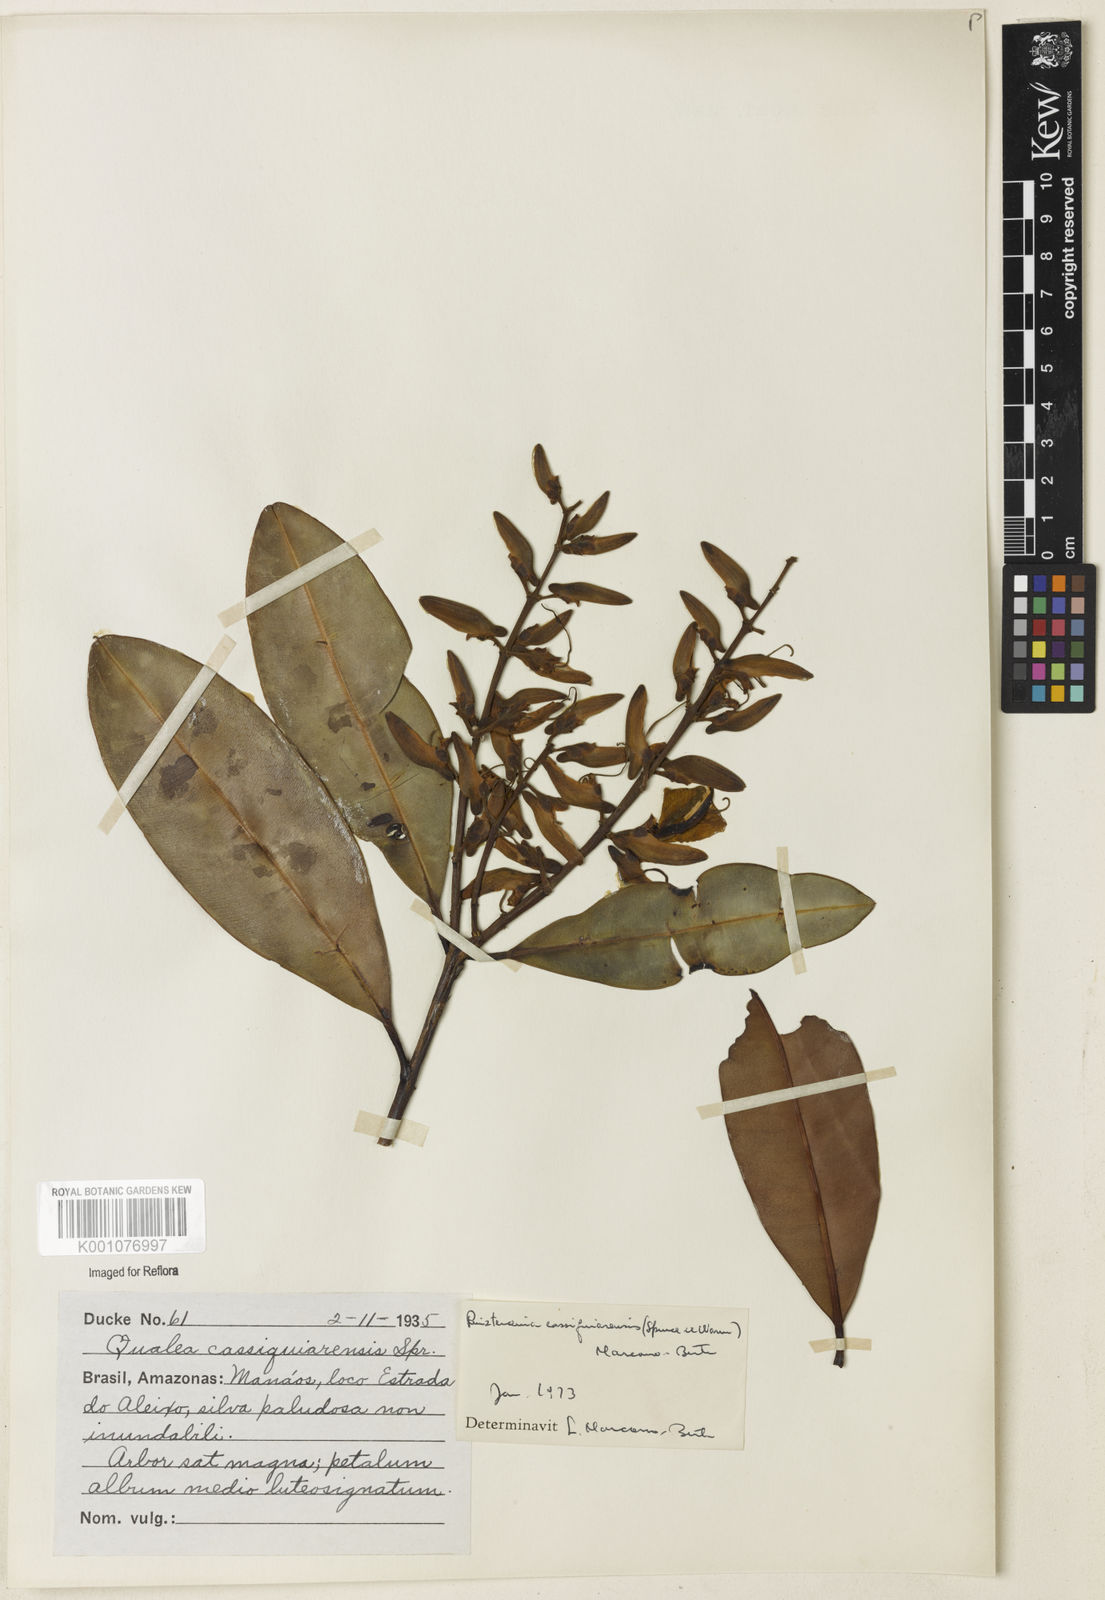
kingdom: Plantae
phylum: Tracheophyta
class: Magnoliopsida
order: Myrtales
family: Vochysiaceae
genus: Ruizterania
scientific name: Ruizterania cassiquiarensis
